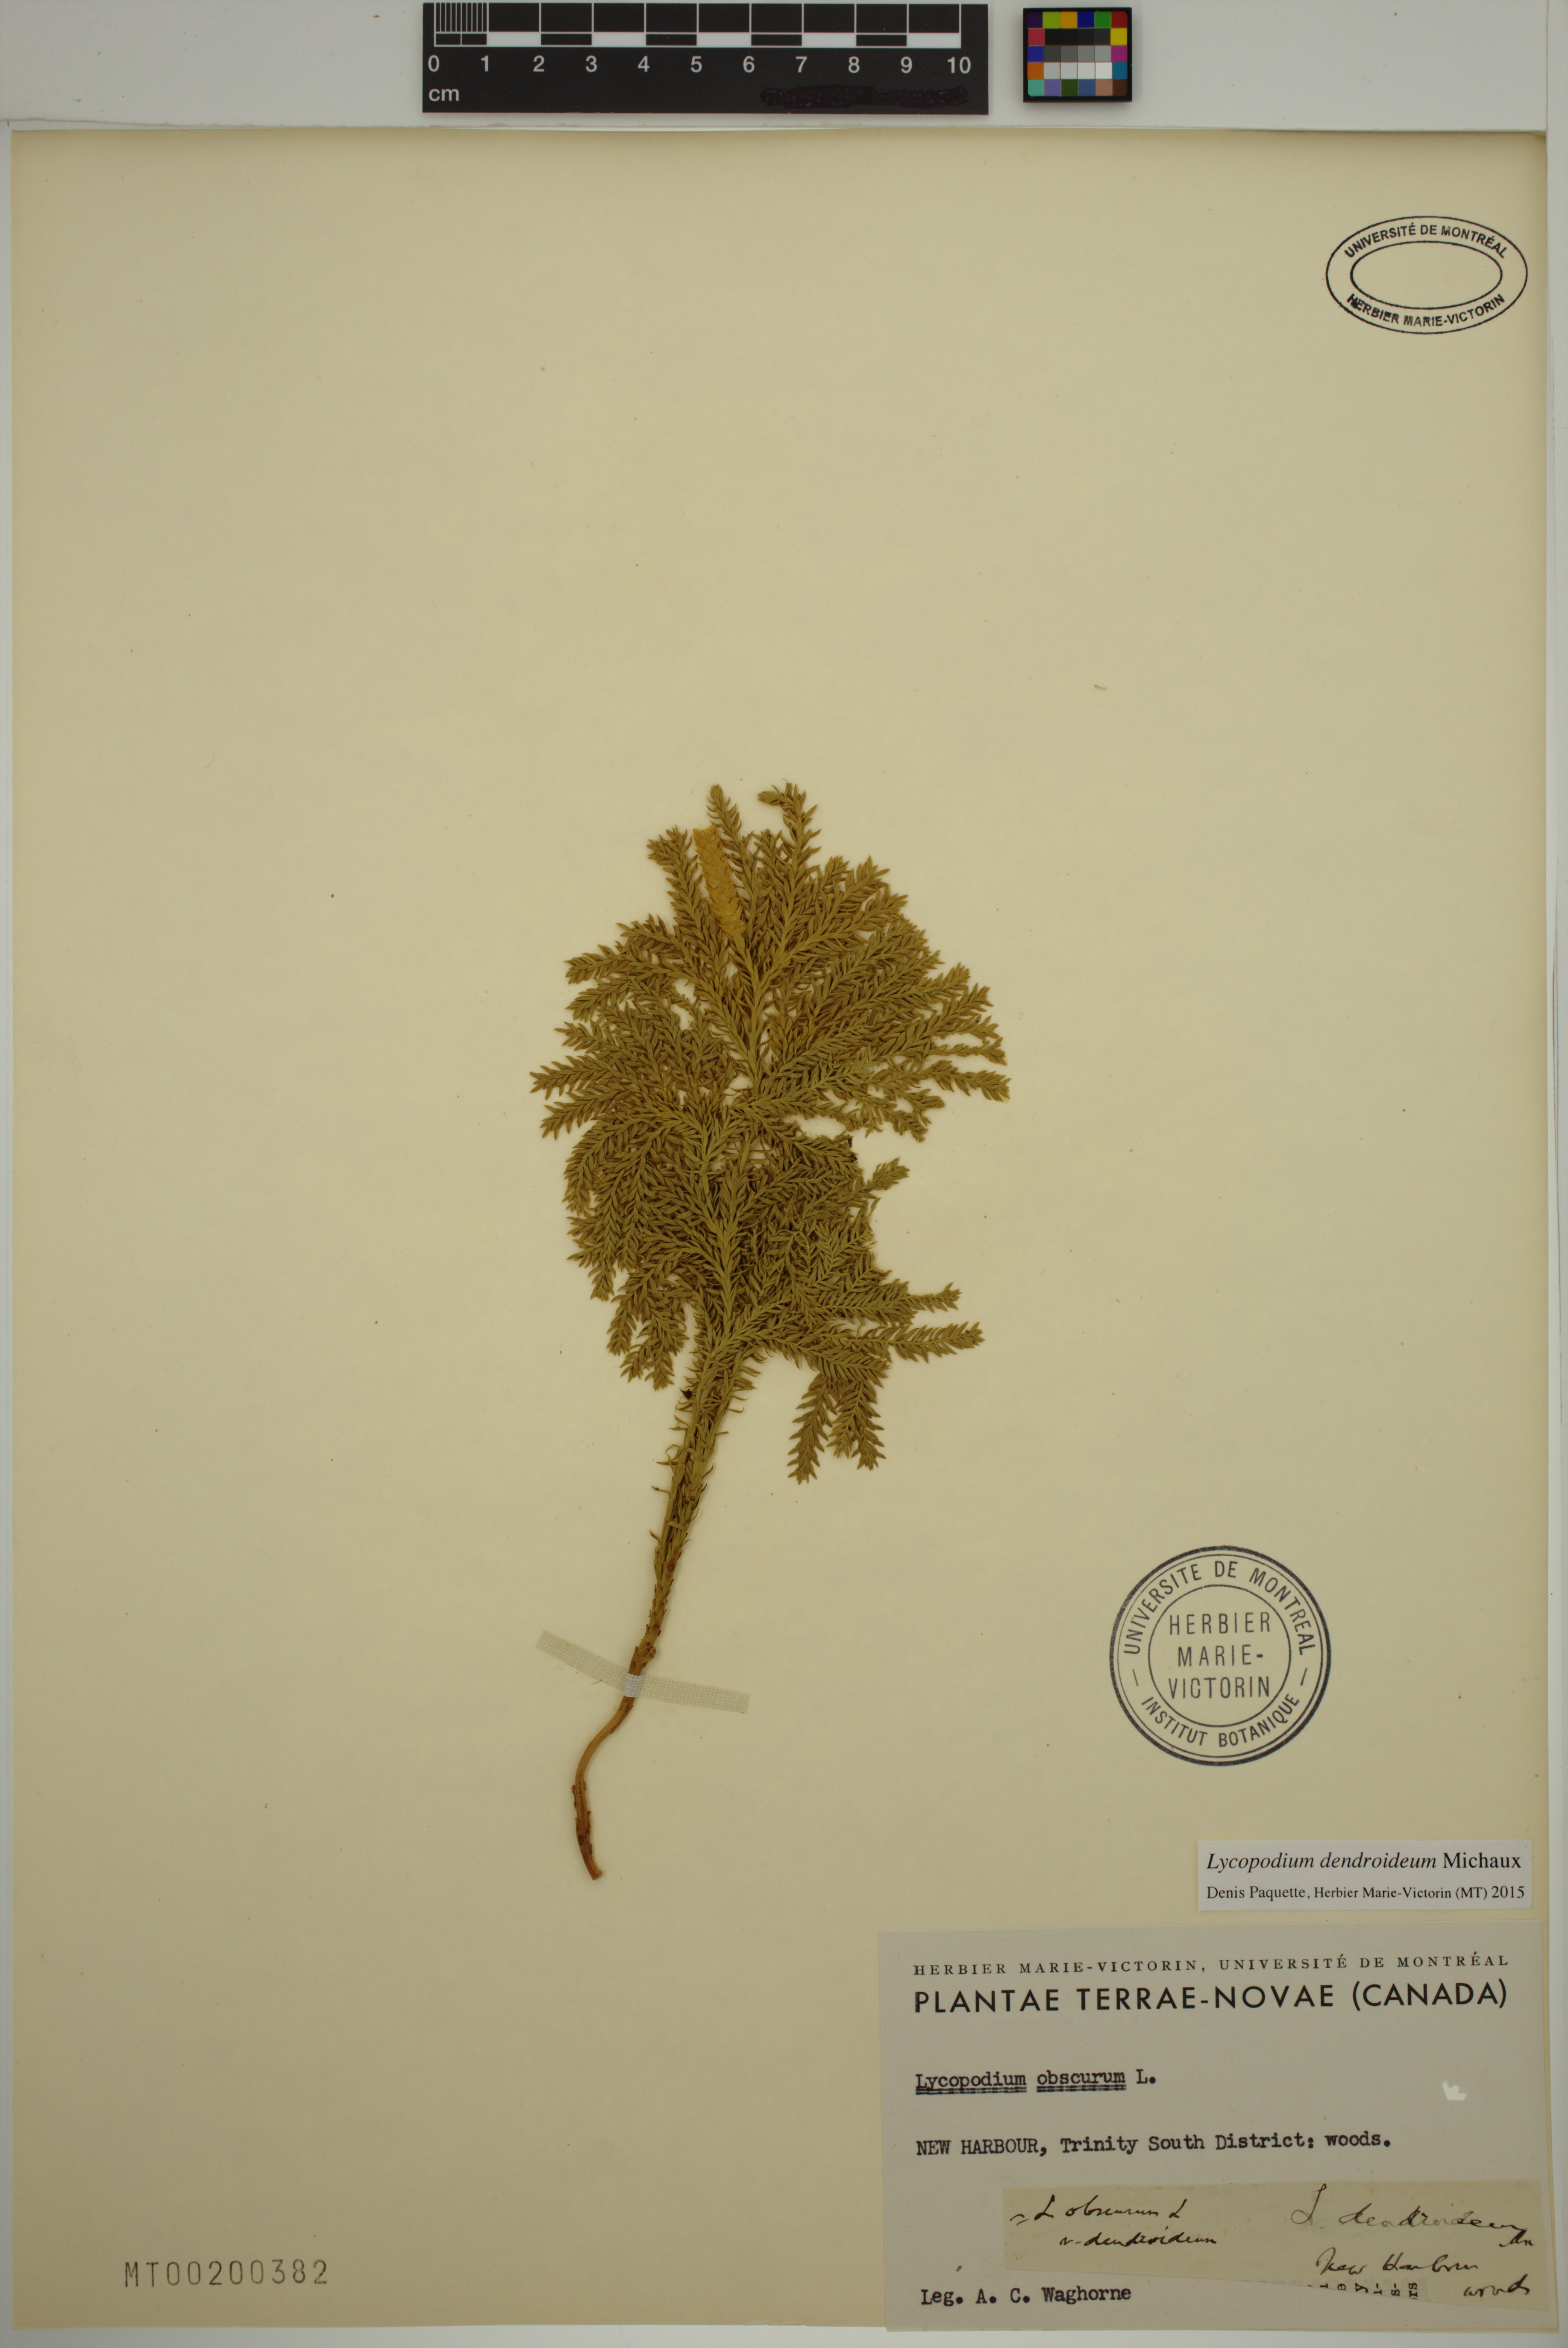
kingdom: Plantae
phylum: Tracheophyta
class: Lycopodiopsida
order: Lycopodiales
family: Lycopodiaceae
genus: Dendrolycopodium
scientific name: Dendrolycopodium dendroideum
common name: Northern tree-clubmoss
